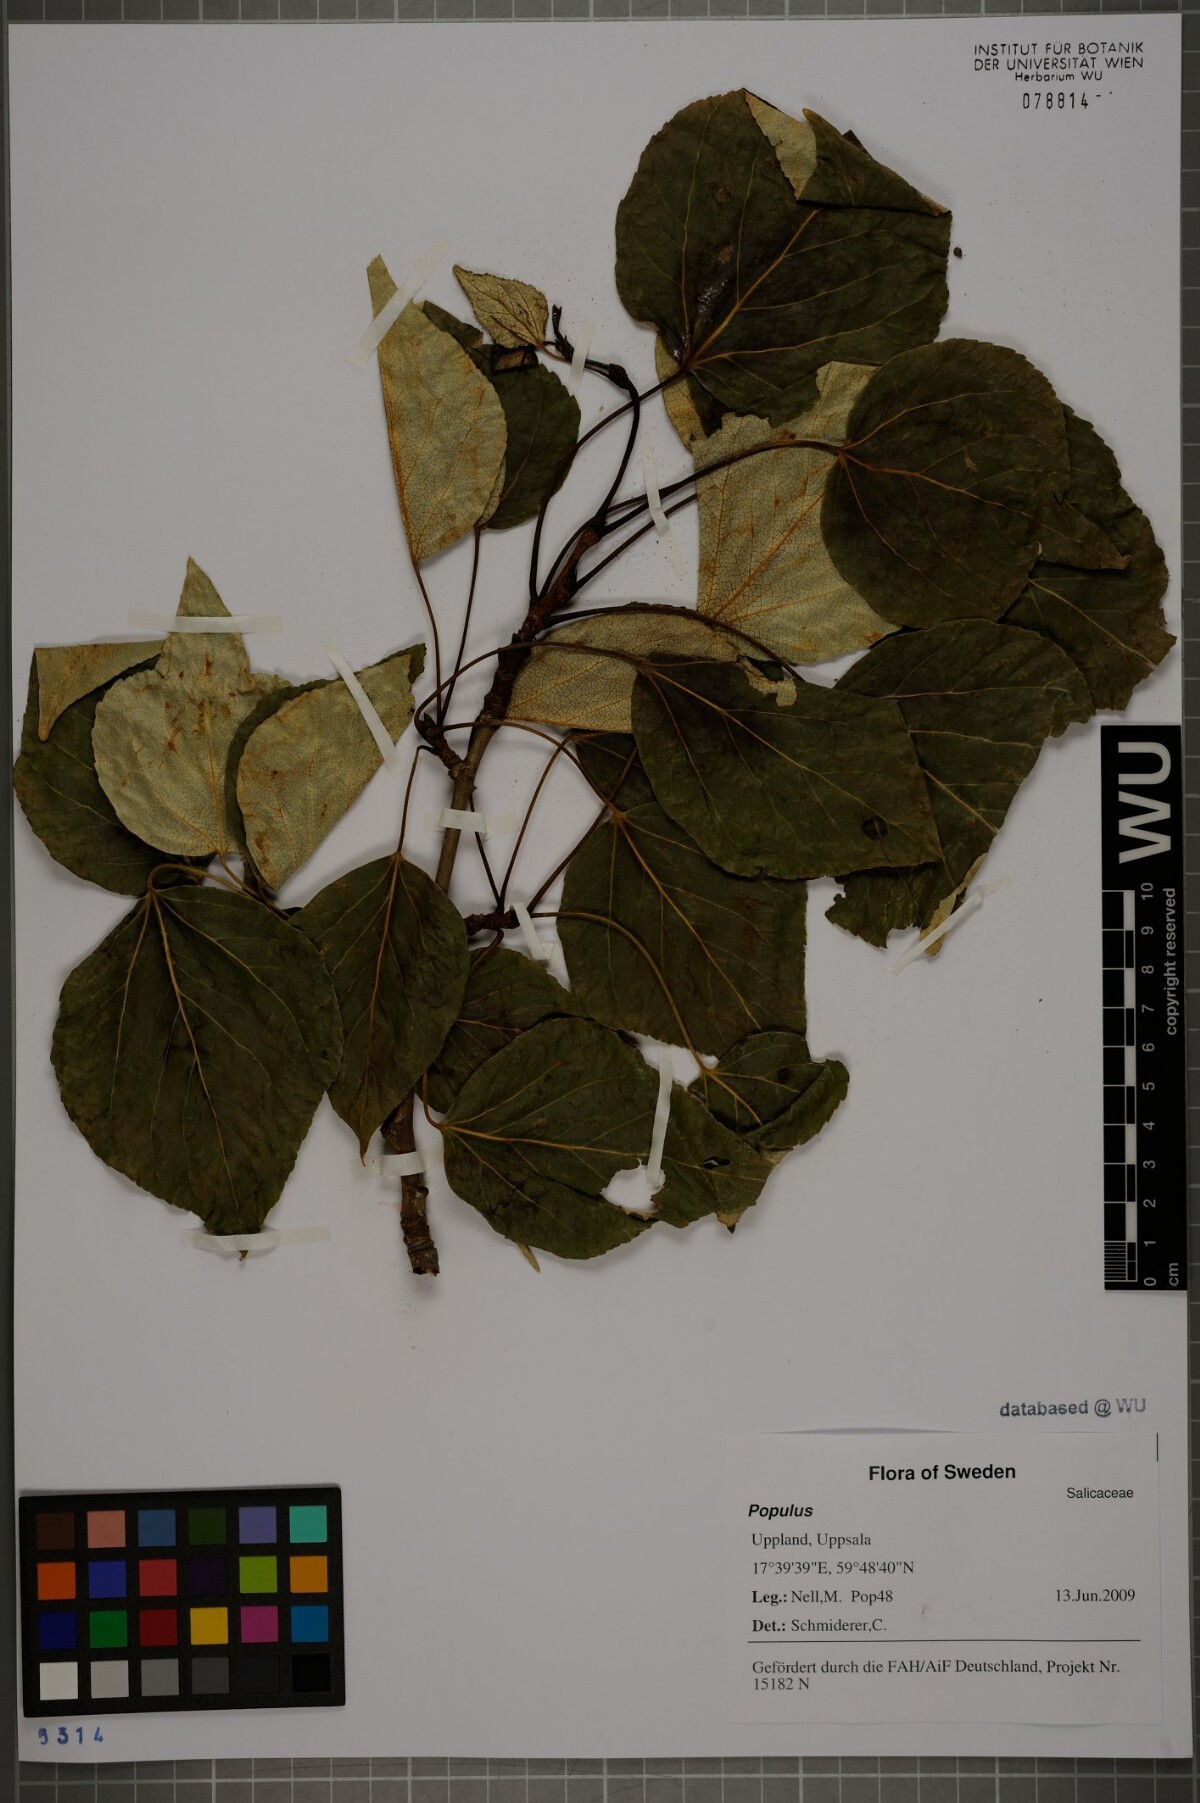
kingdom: Plantae
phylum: Tracheophyta
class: Magnoliopsida
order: Malpighiales
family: Salicaceae
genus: Populus
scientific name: Populus
